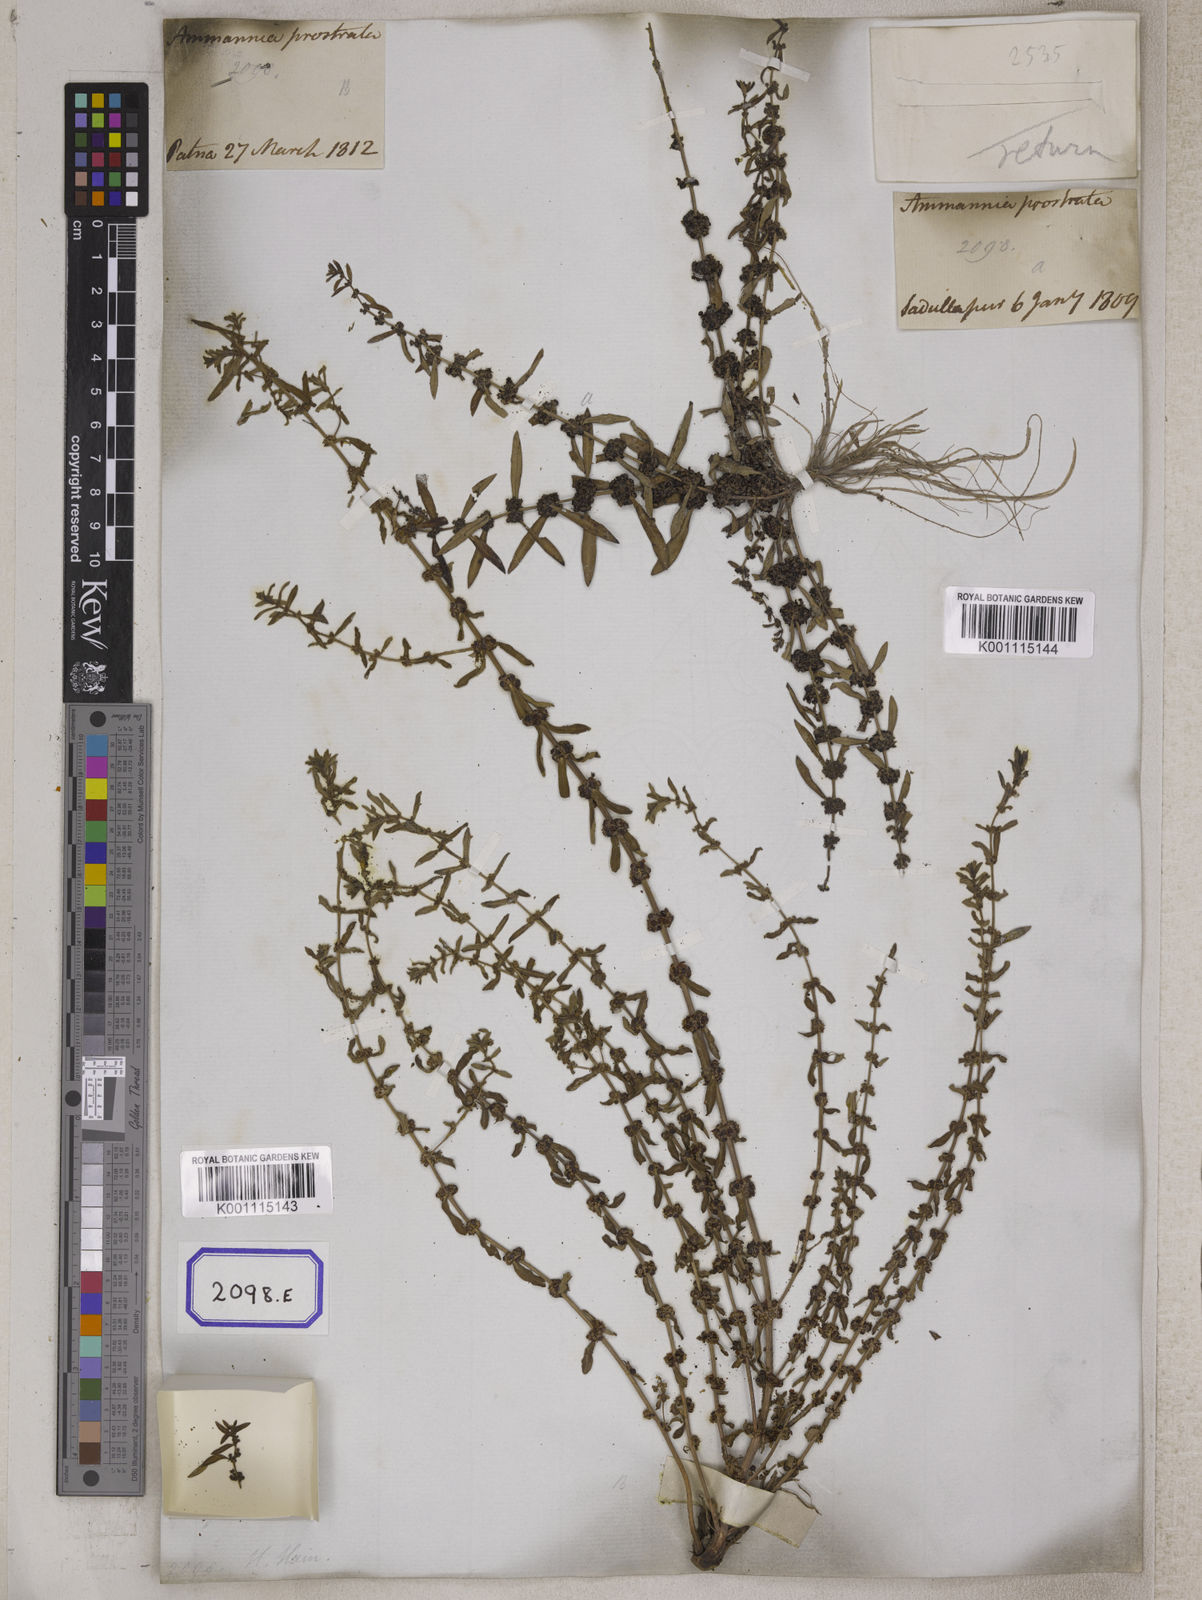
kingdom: Plantae
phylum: Tracheophyta
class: Magnoliopsida
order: Myrtales
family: Lythraceae
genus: Ammannia
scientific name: Ammannia baccifera
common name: Blistering ammania
